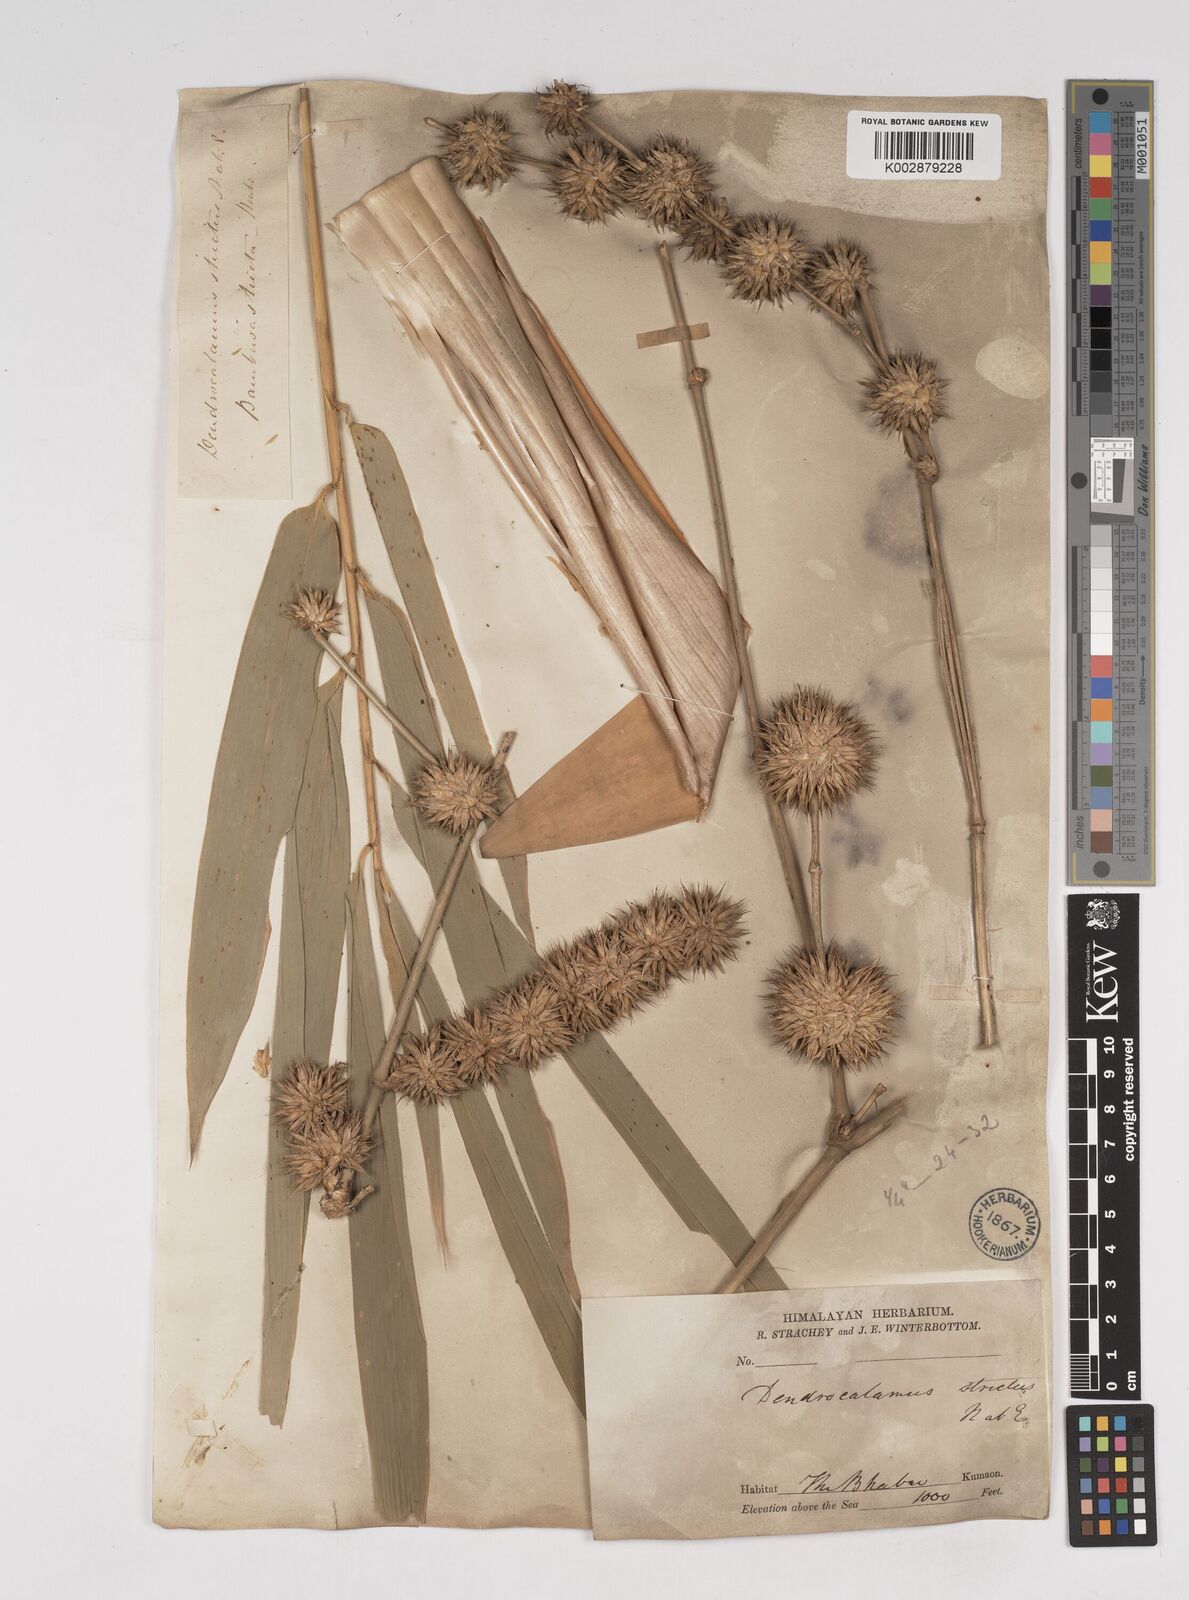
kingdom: Plantae
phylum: Tracheophyta
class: Liliopsida
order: Poales
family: Poaceae
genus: Dendrocalamus
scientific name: Dendrocalamus strictus
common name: Male bamboo
